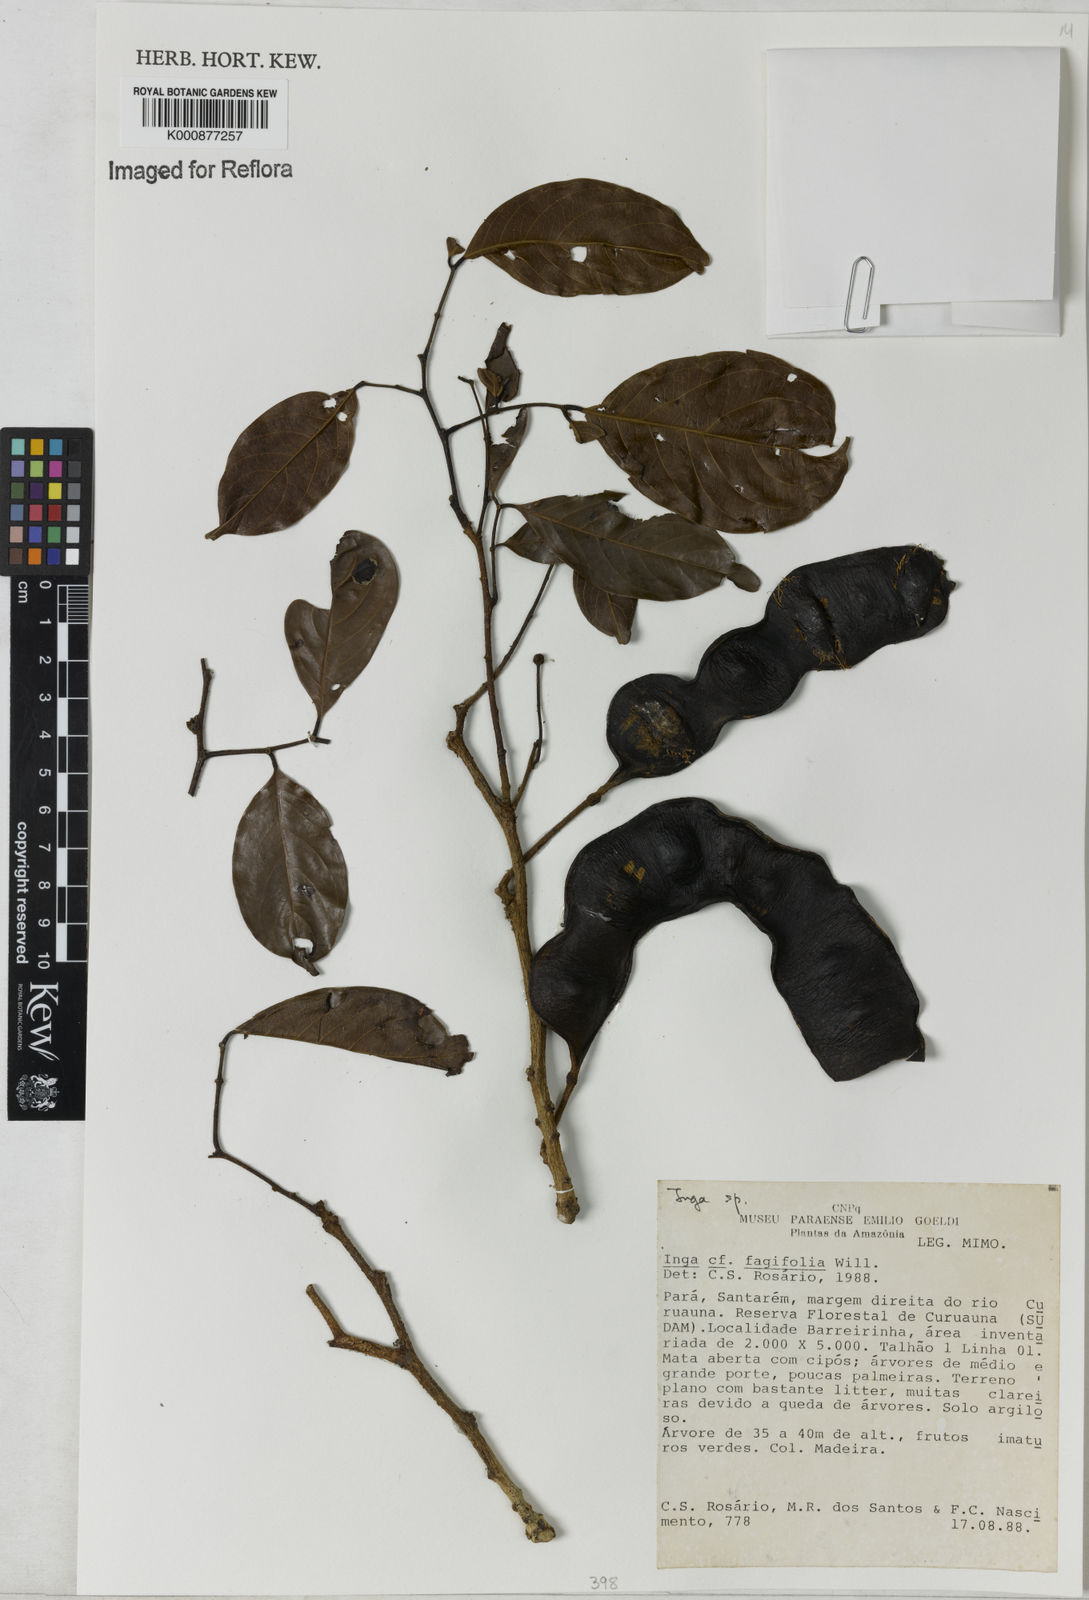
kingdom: Plantae
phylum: Tracheophyta
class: Magnoliopsida
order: Fabales
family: Fabaceae
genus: Inga
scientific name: Inga
